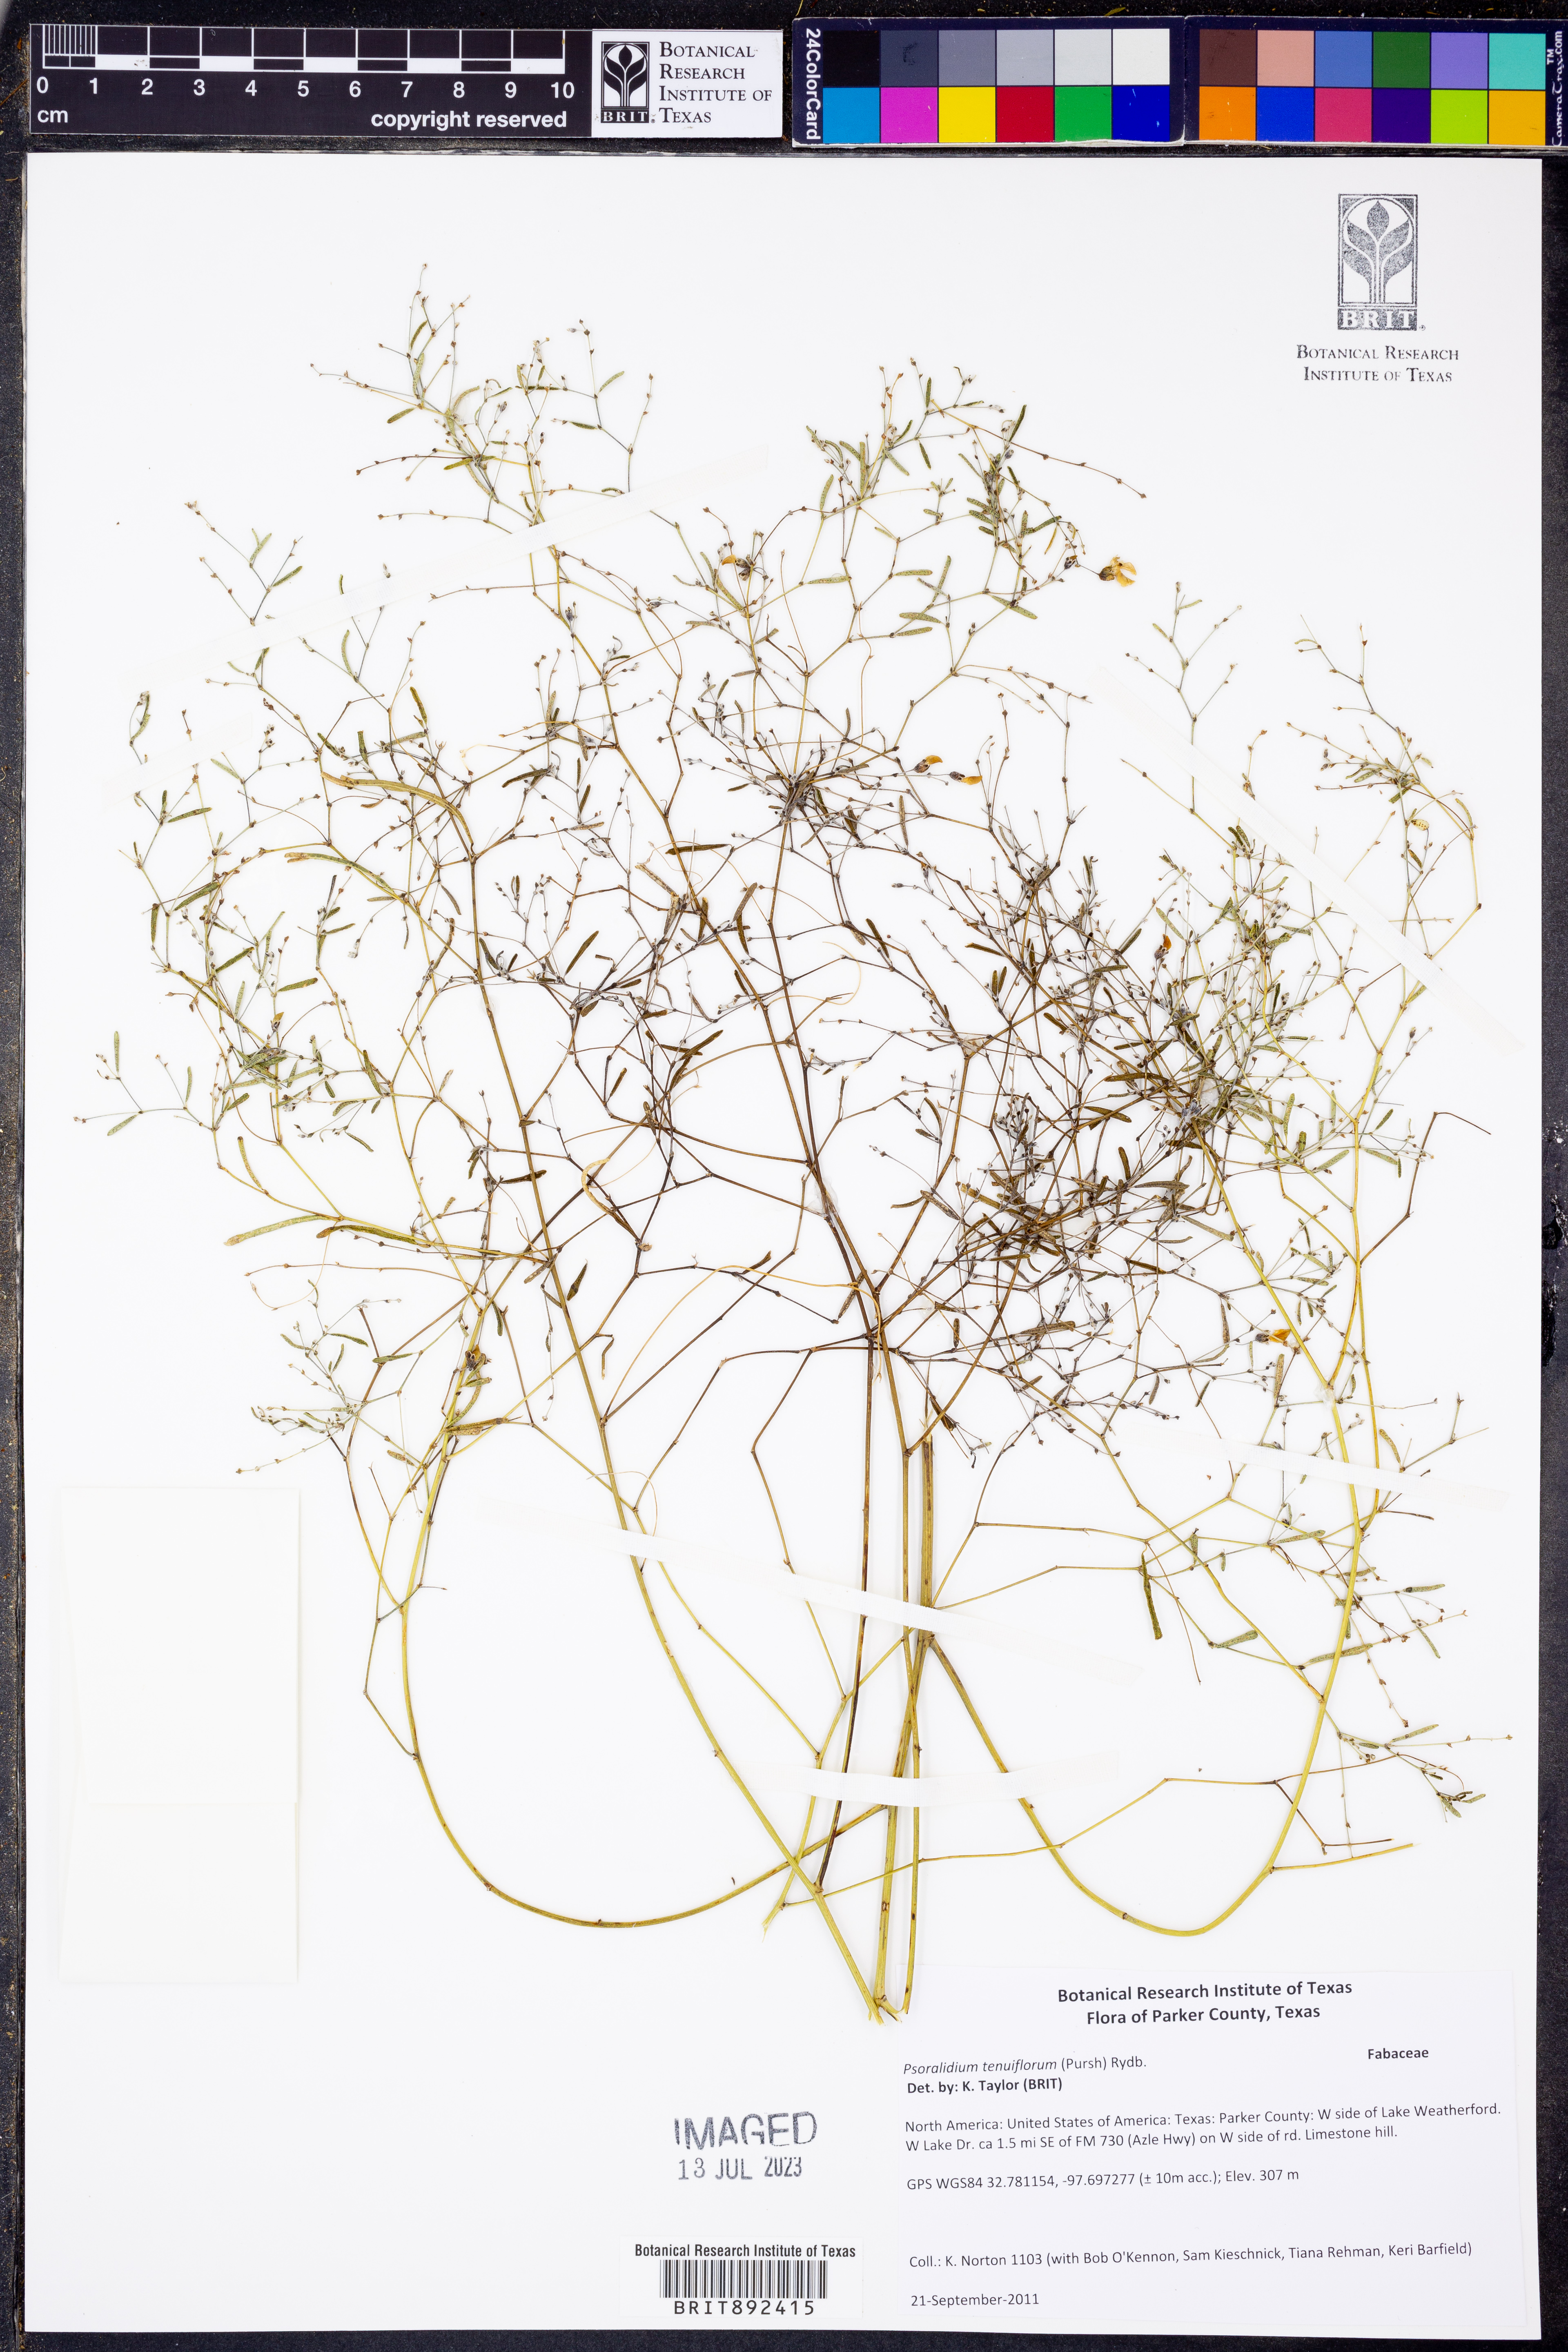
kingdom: Plantae
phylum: Tracheophyta
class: Magnoliopsida
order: Fabales
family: Fabaceae
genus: Pediomelum
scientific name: Pediomelum tenuiflorum
